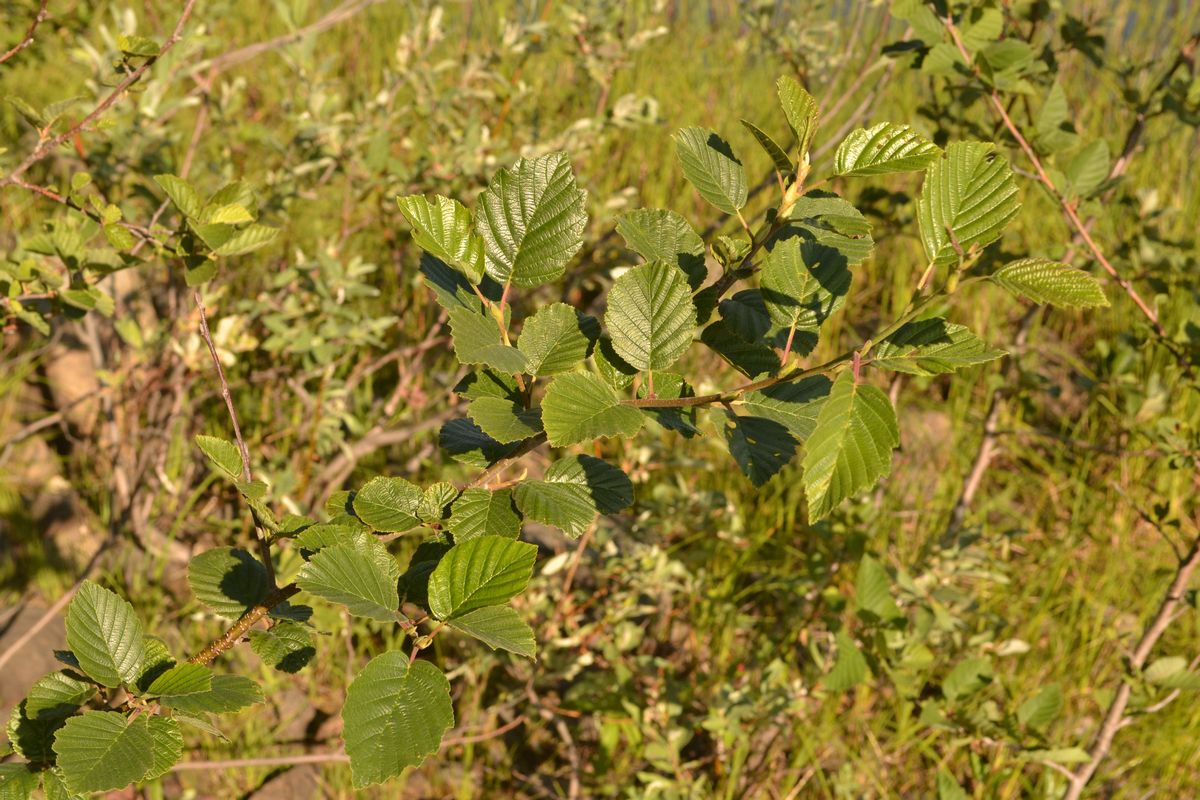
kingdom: Plantae
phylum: Tracheophyta
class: Magnoliopsida
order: Fagales
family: Betulaceae
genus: Alnus
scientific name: Alnus incana
